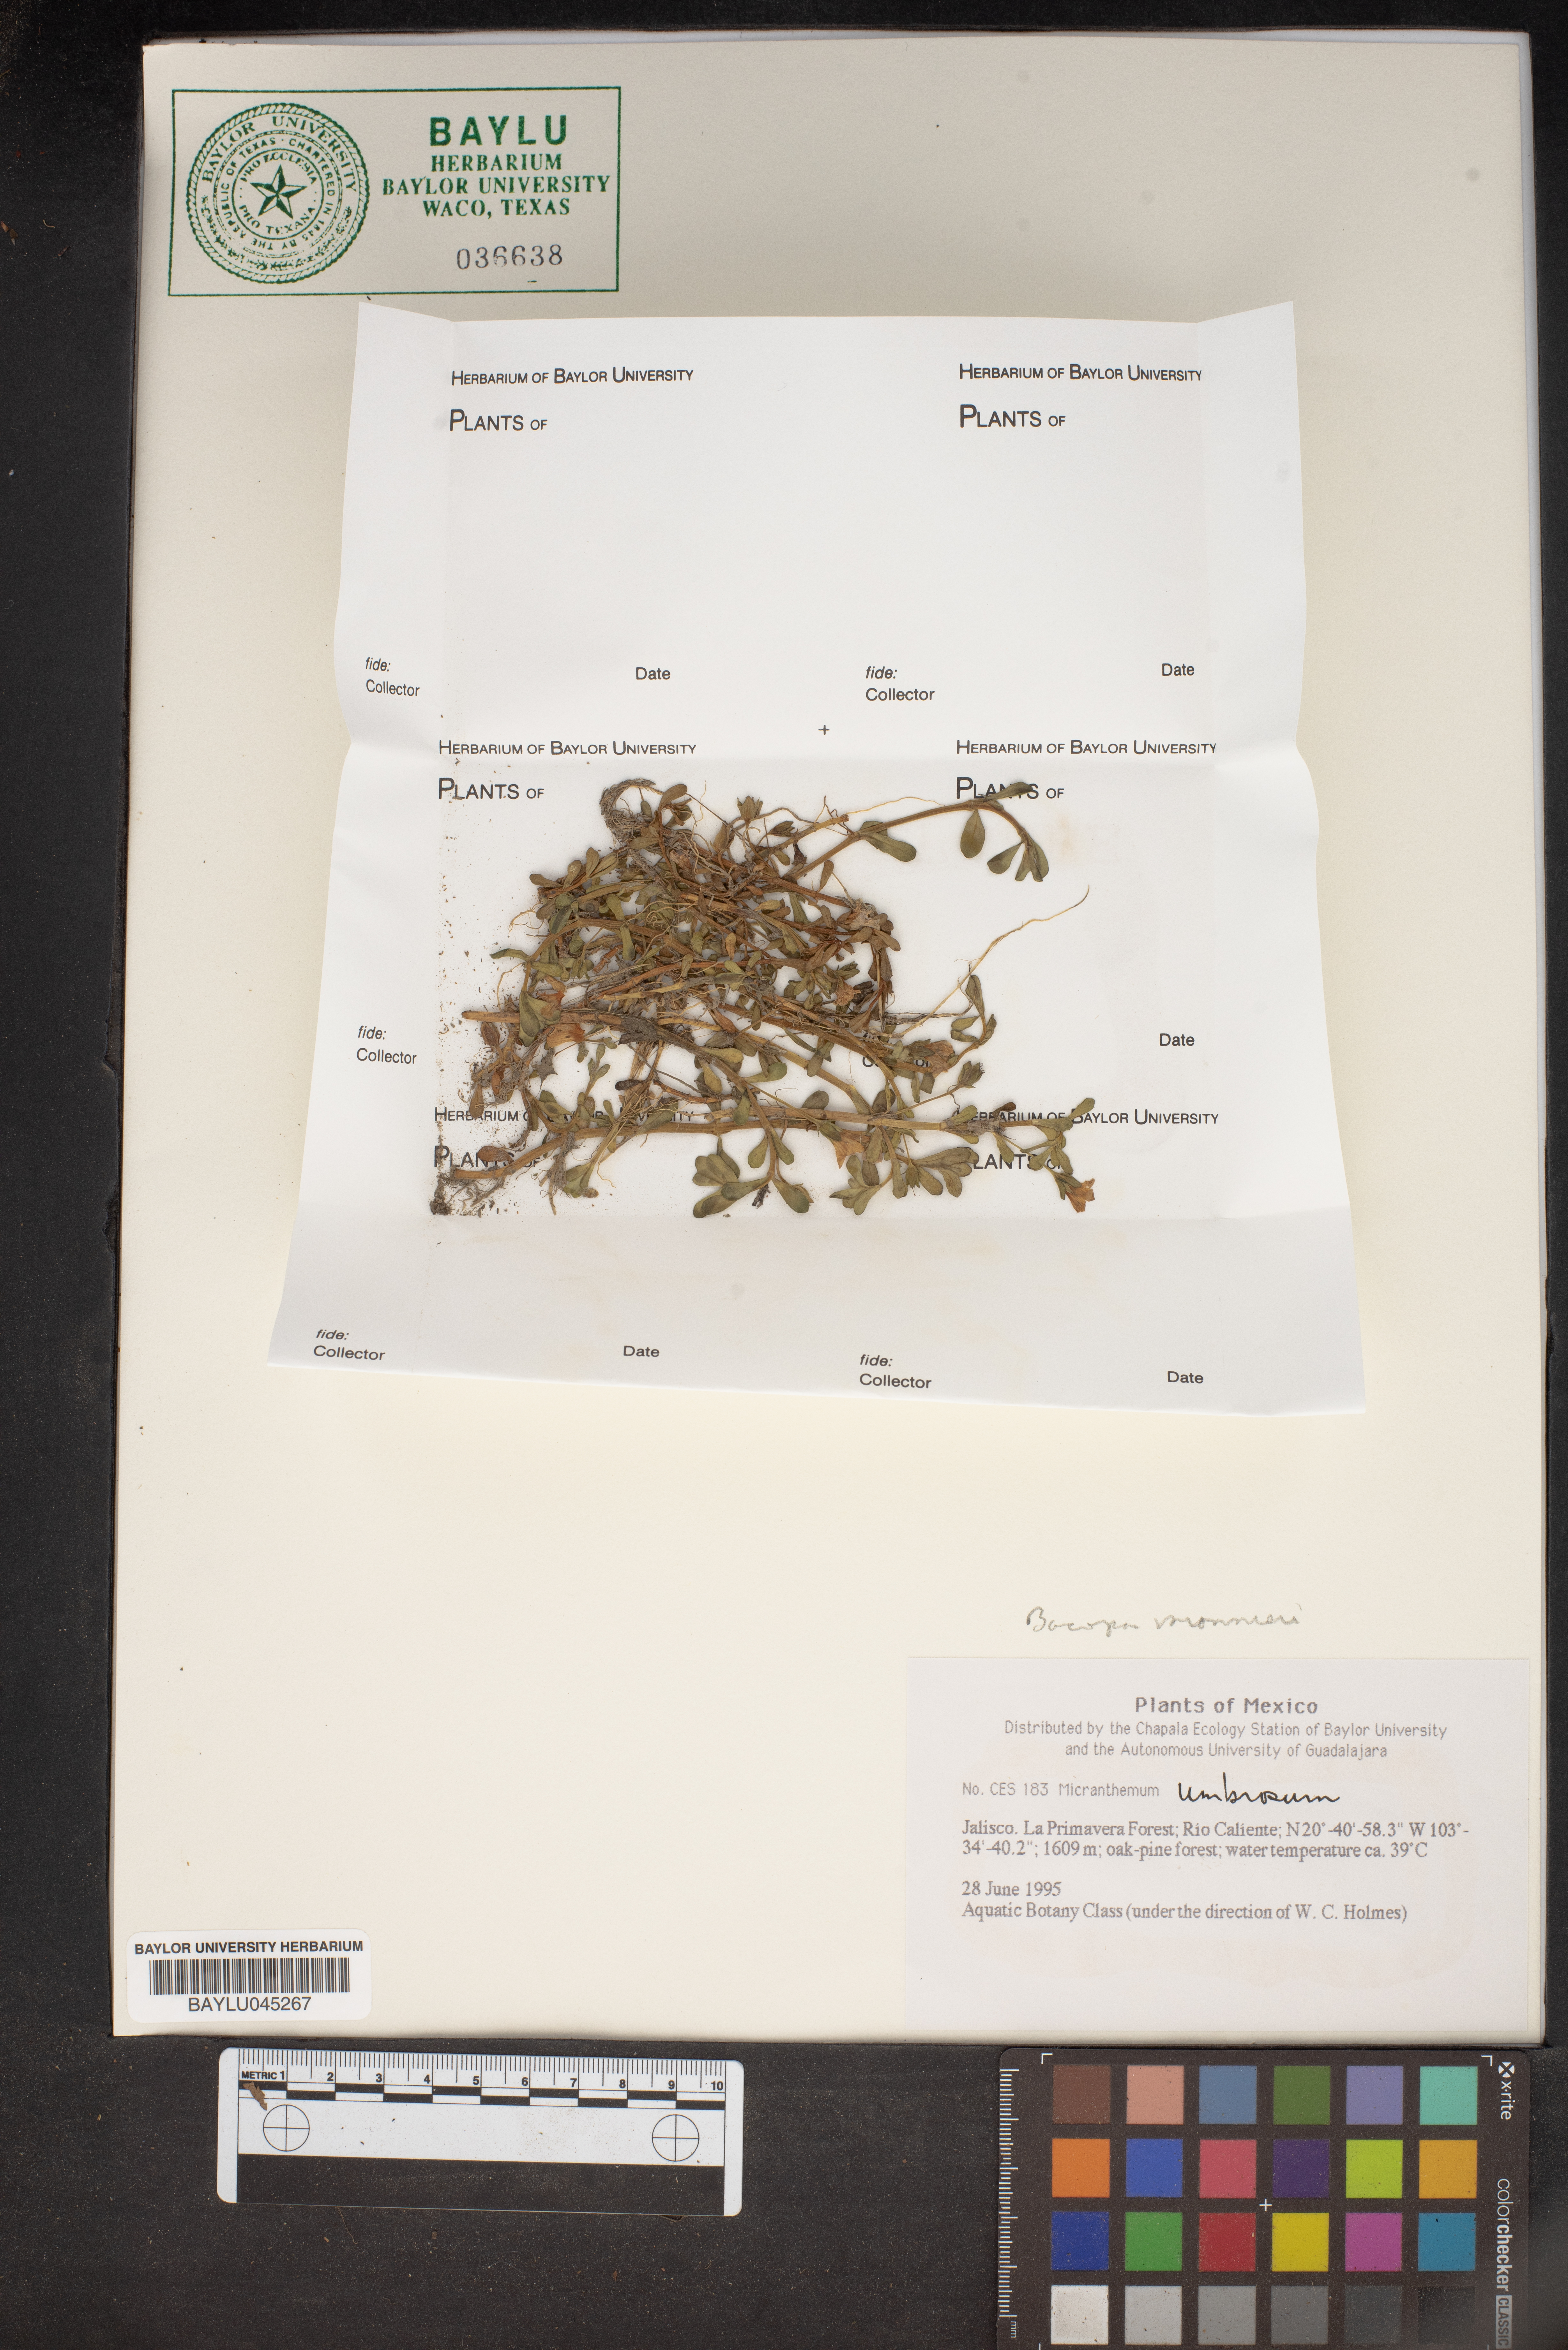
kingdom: Plantae
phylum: Tracheophyta
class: Magnoliopsida
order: Lamiales
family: Linderniaceae
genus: Micranthemum
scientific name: Micranthemum umbrosum
